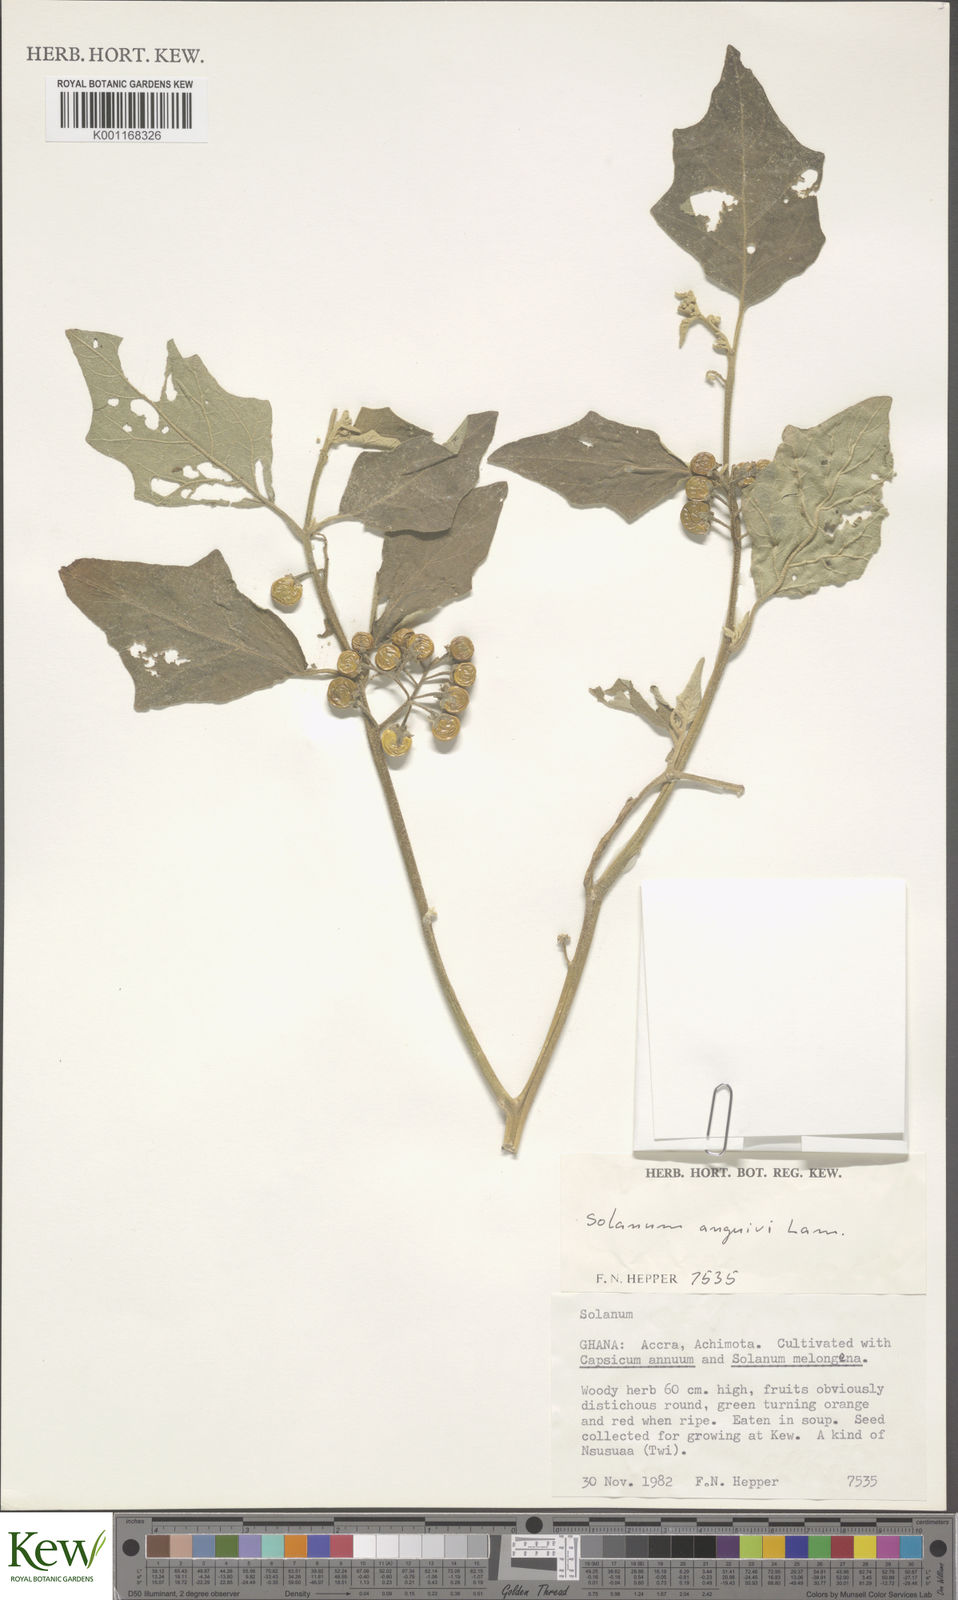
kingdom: Plantae
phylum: Tracheophyta
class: Magnoliopsida
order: Solanales
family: Solanaceae
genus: Solanum
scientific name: Solanum anguivi
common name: Forest bitterberry
